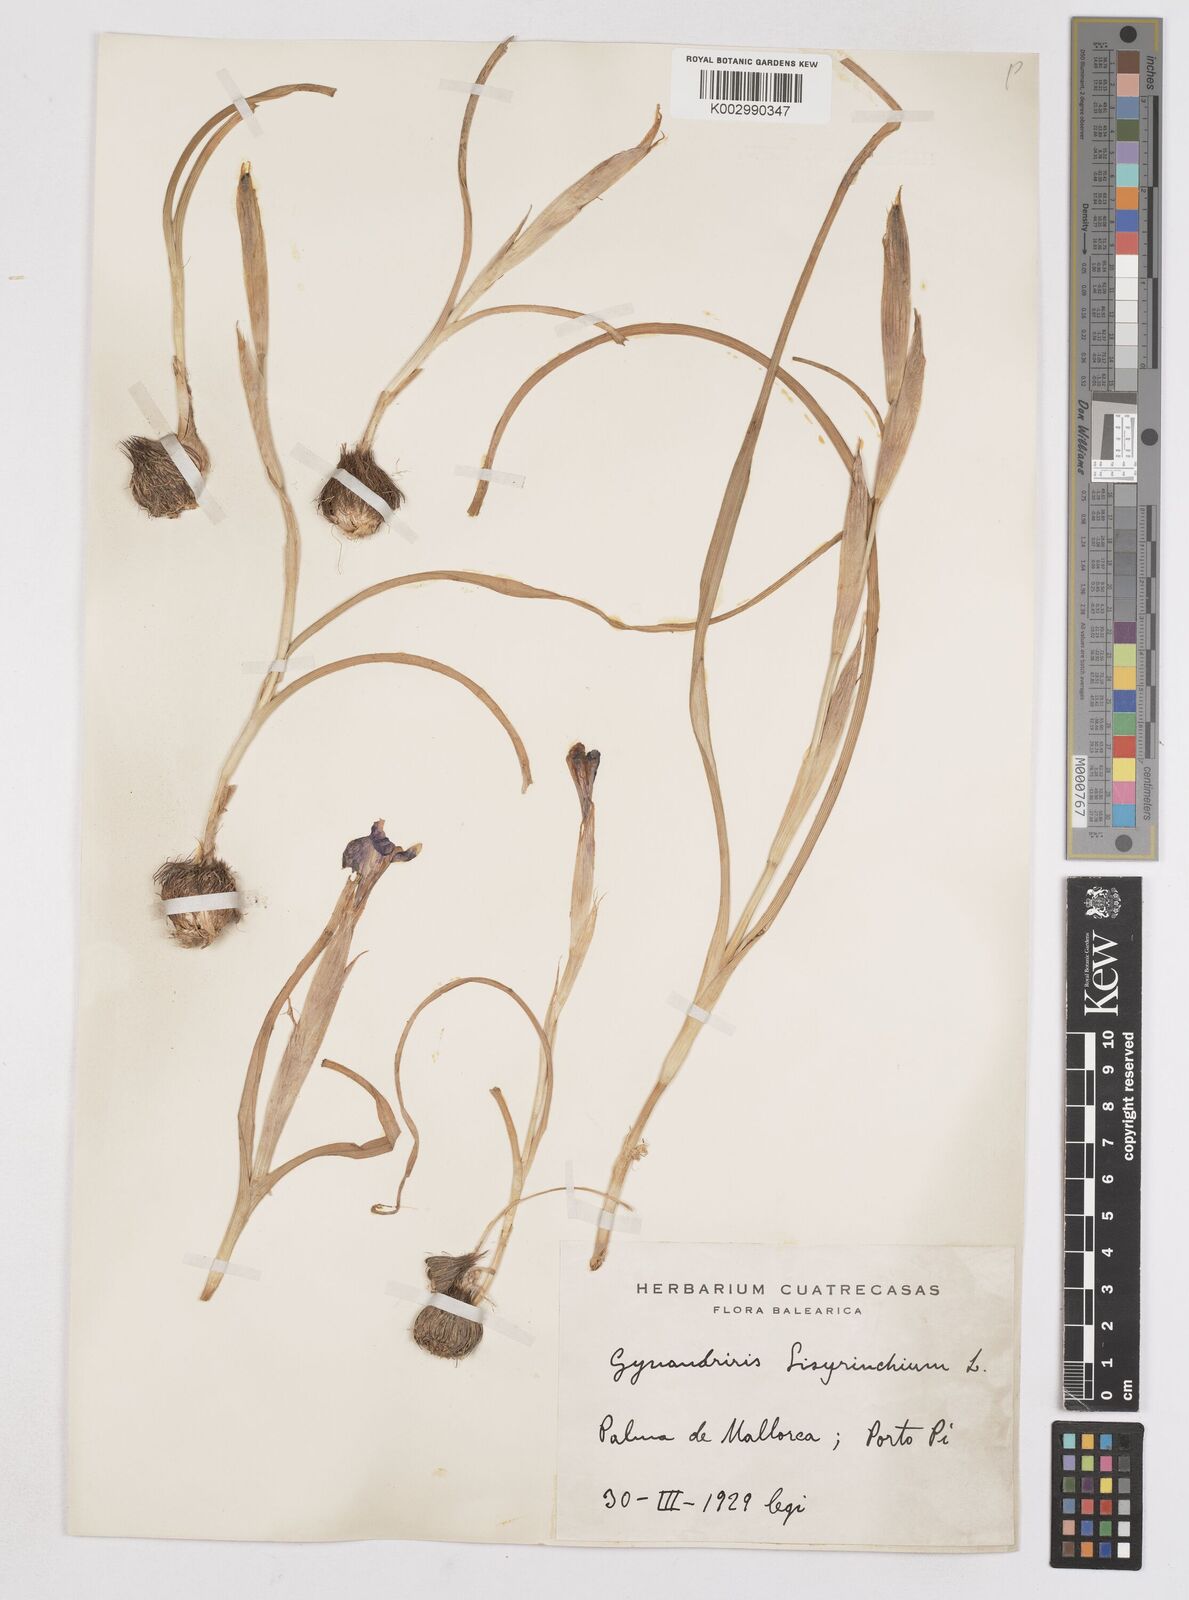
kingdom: Plantae
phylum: Tracheophyta
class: Liliopsida
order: Asparagales
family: Iridaceae
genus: Moraea
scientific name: Moraea sisyrinchium
